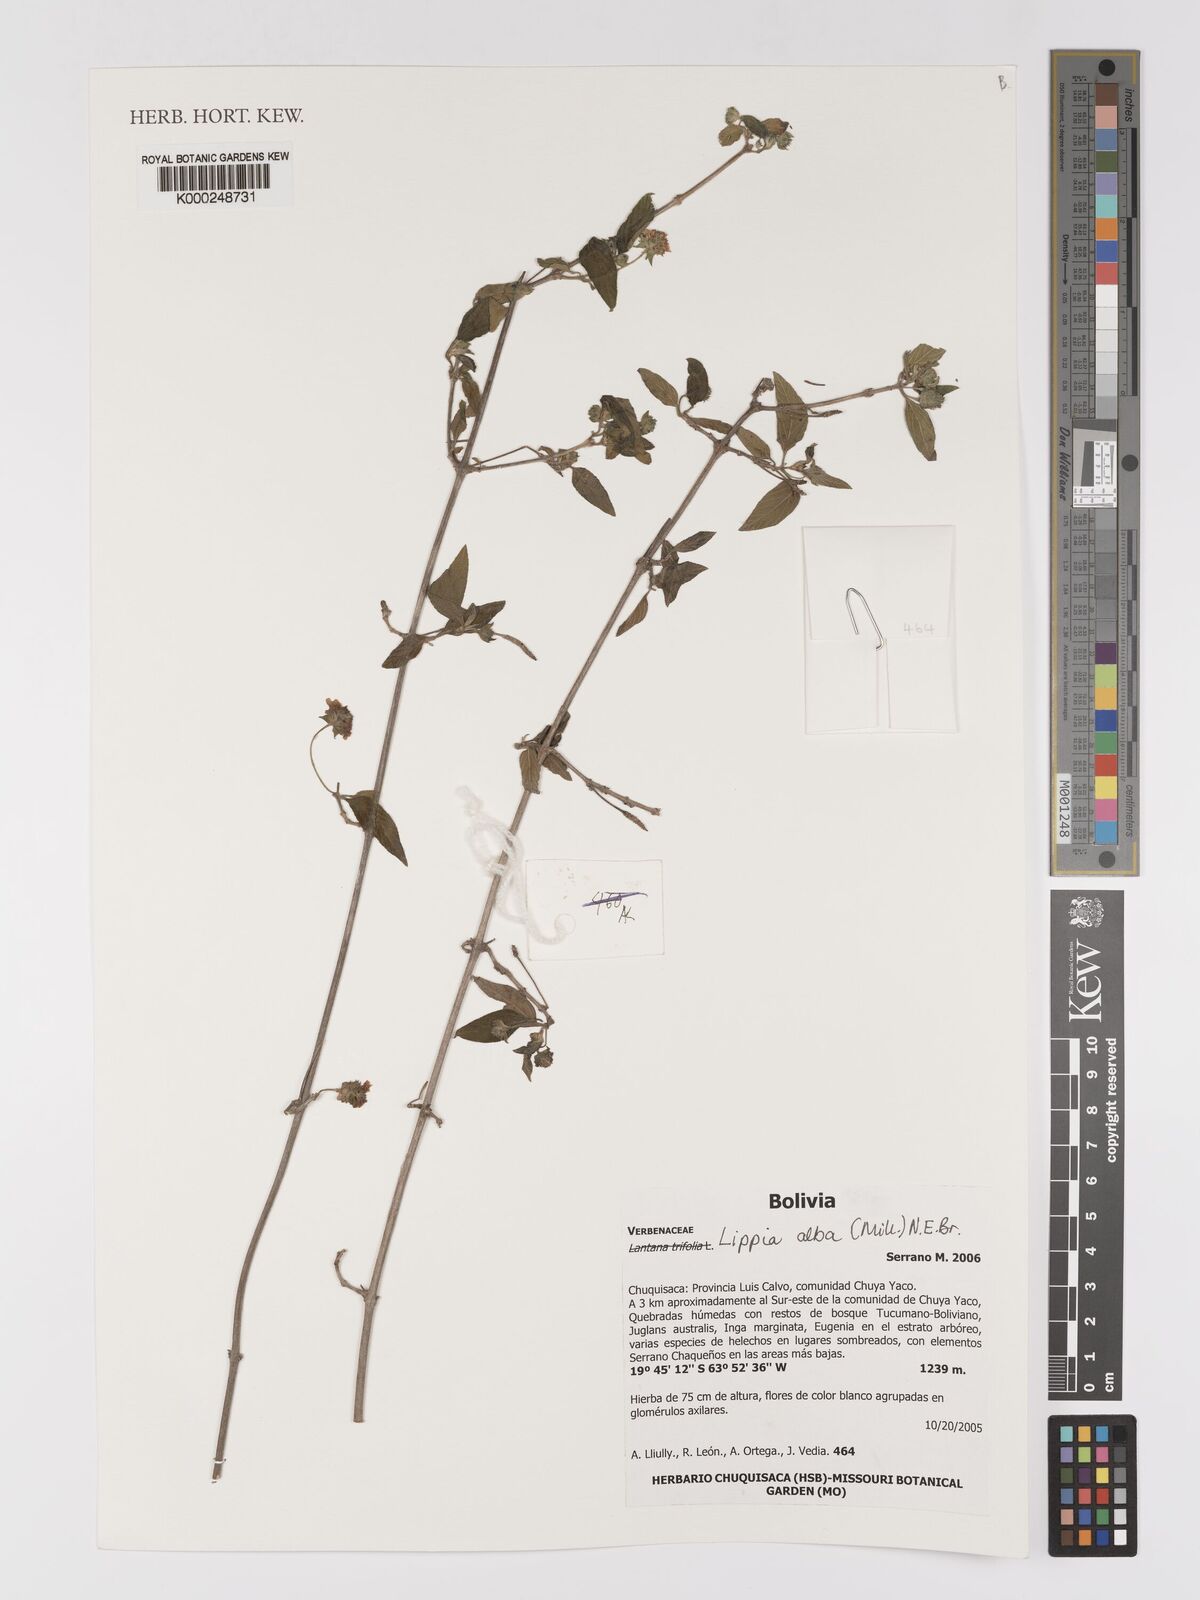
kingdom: Plantae
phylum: Tracheophyta
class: Magnoliopsida
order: Lamiales
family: Verbenaceae
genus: Lippia
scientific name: Lippia
